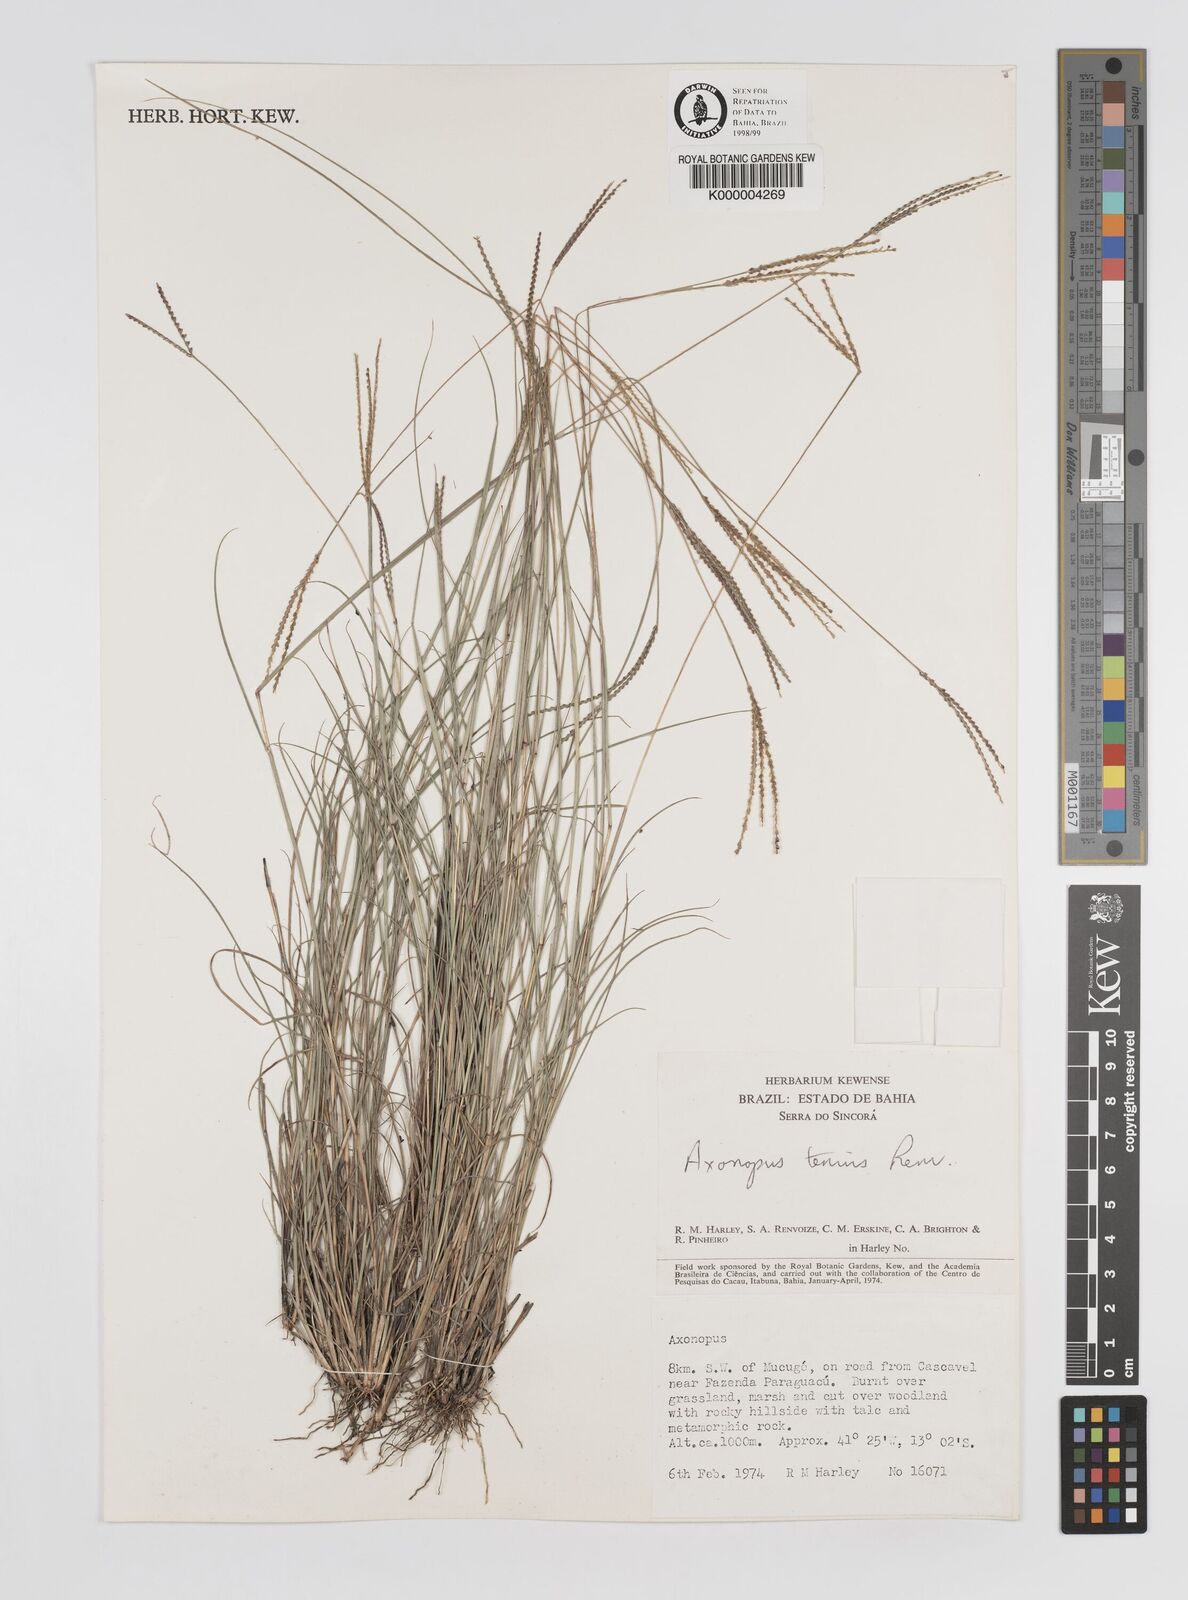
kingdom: Plantae
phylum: Tracheophyta
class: Liliopsida
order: Poales
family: Poaceae
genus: Axonopus
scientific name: Axonopus aureus
